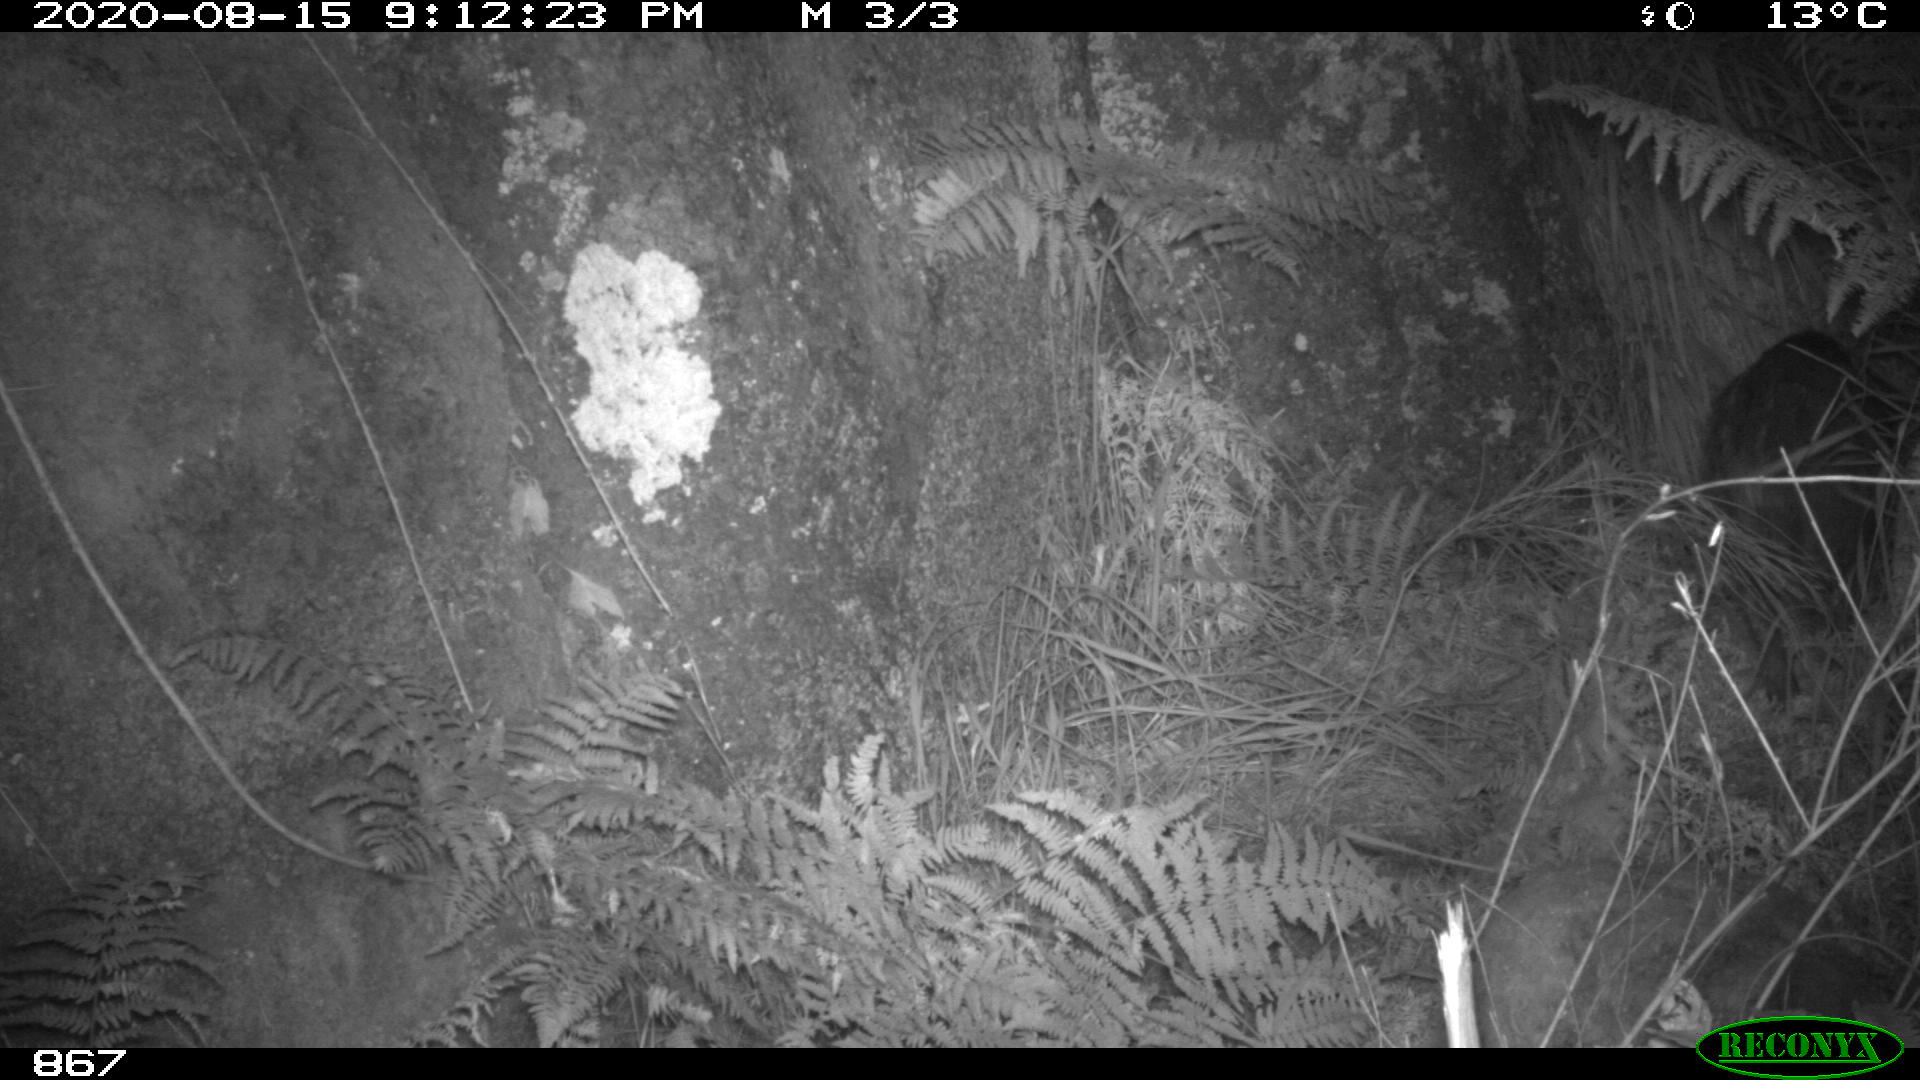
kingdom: Animalia
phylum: Chordata
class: Mammalia
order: Artiodactyla
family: Suidae
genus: Sus
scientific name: Sus scrofa
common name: Wild boar
